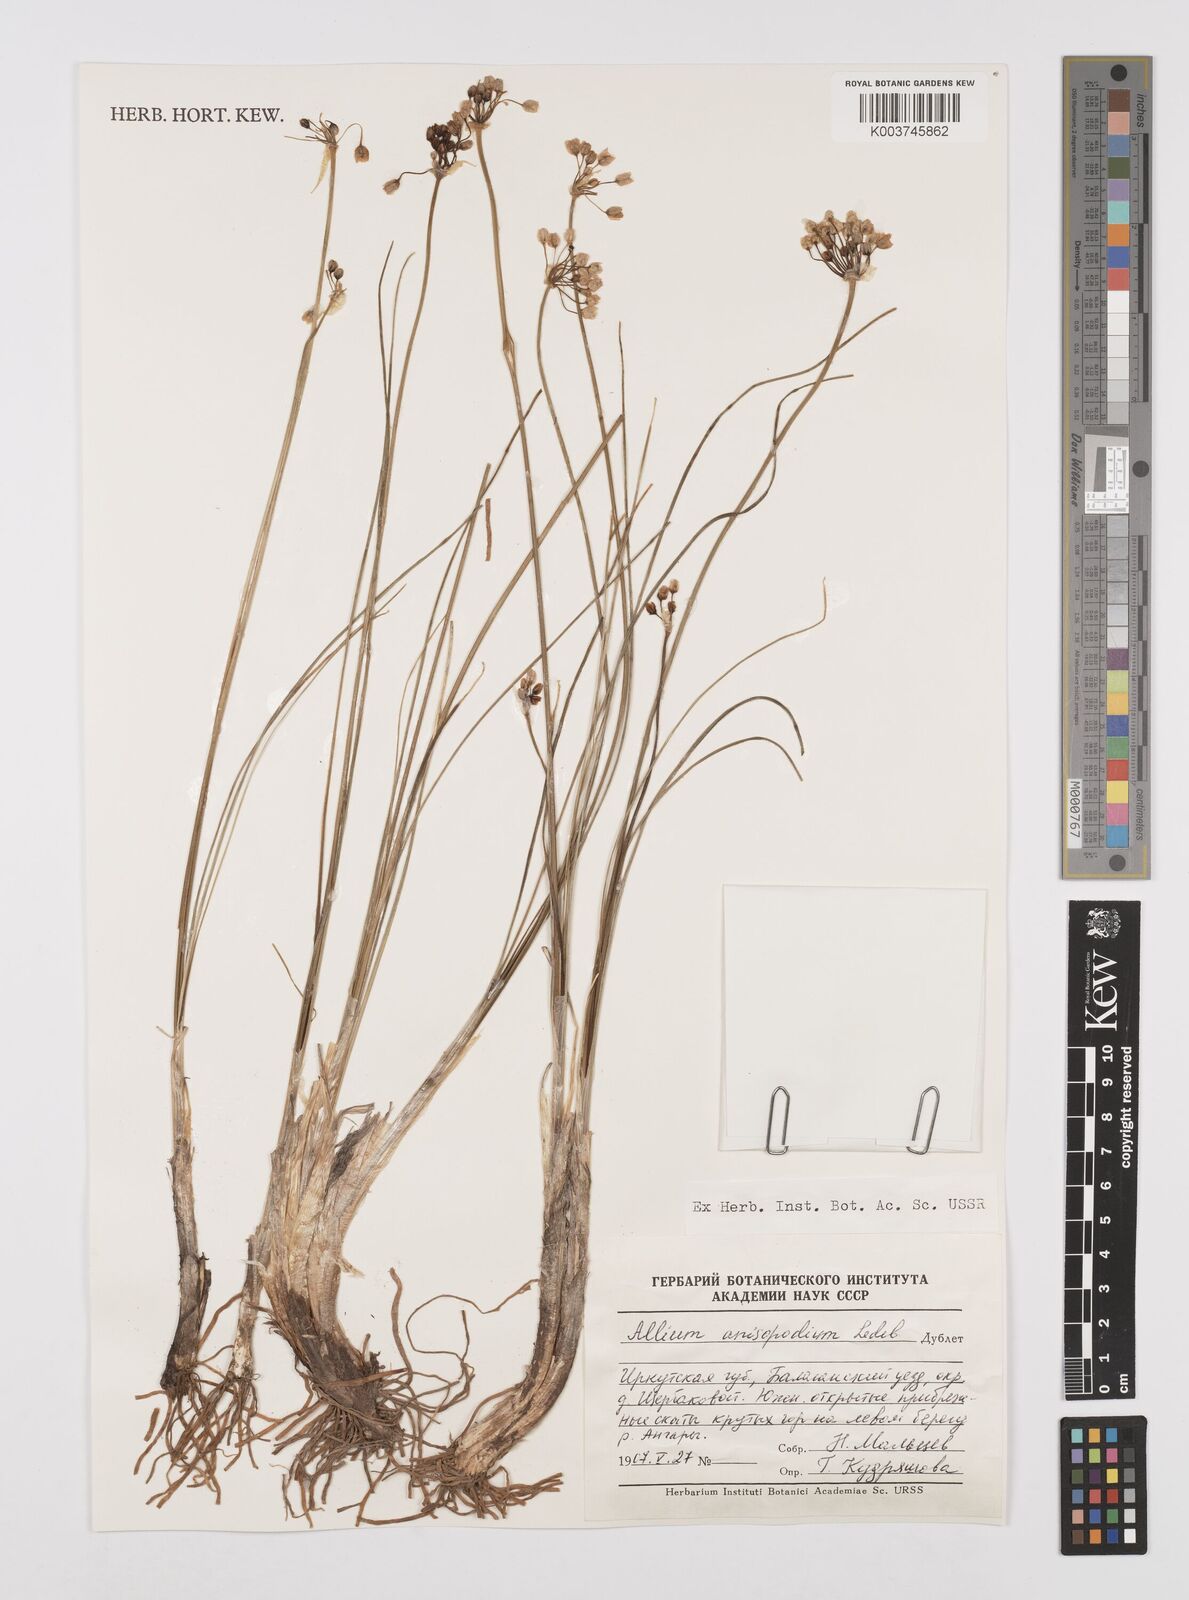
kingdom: Plantae
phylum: Tracheophyta
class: Liliopsida
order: Asparagales
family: Amaryllidaceae
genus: Allium
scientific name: Allium anisopodium
